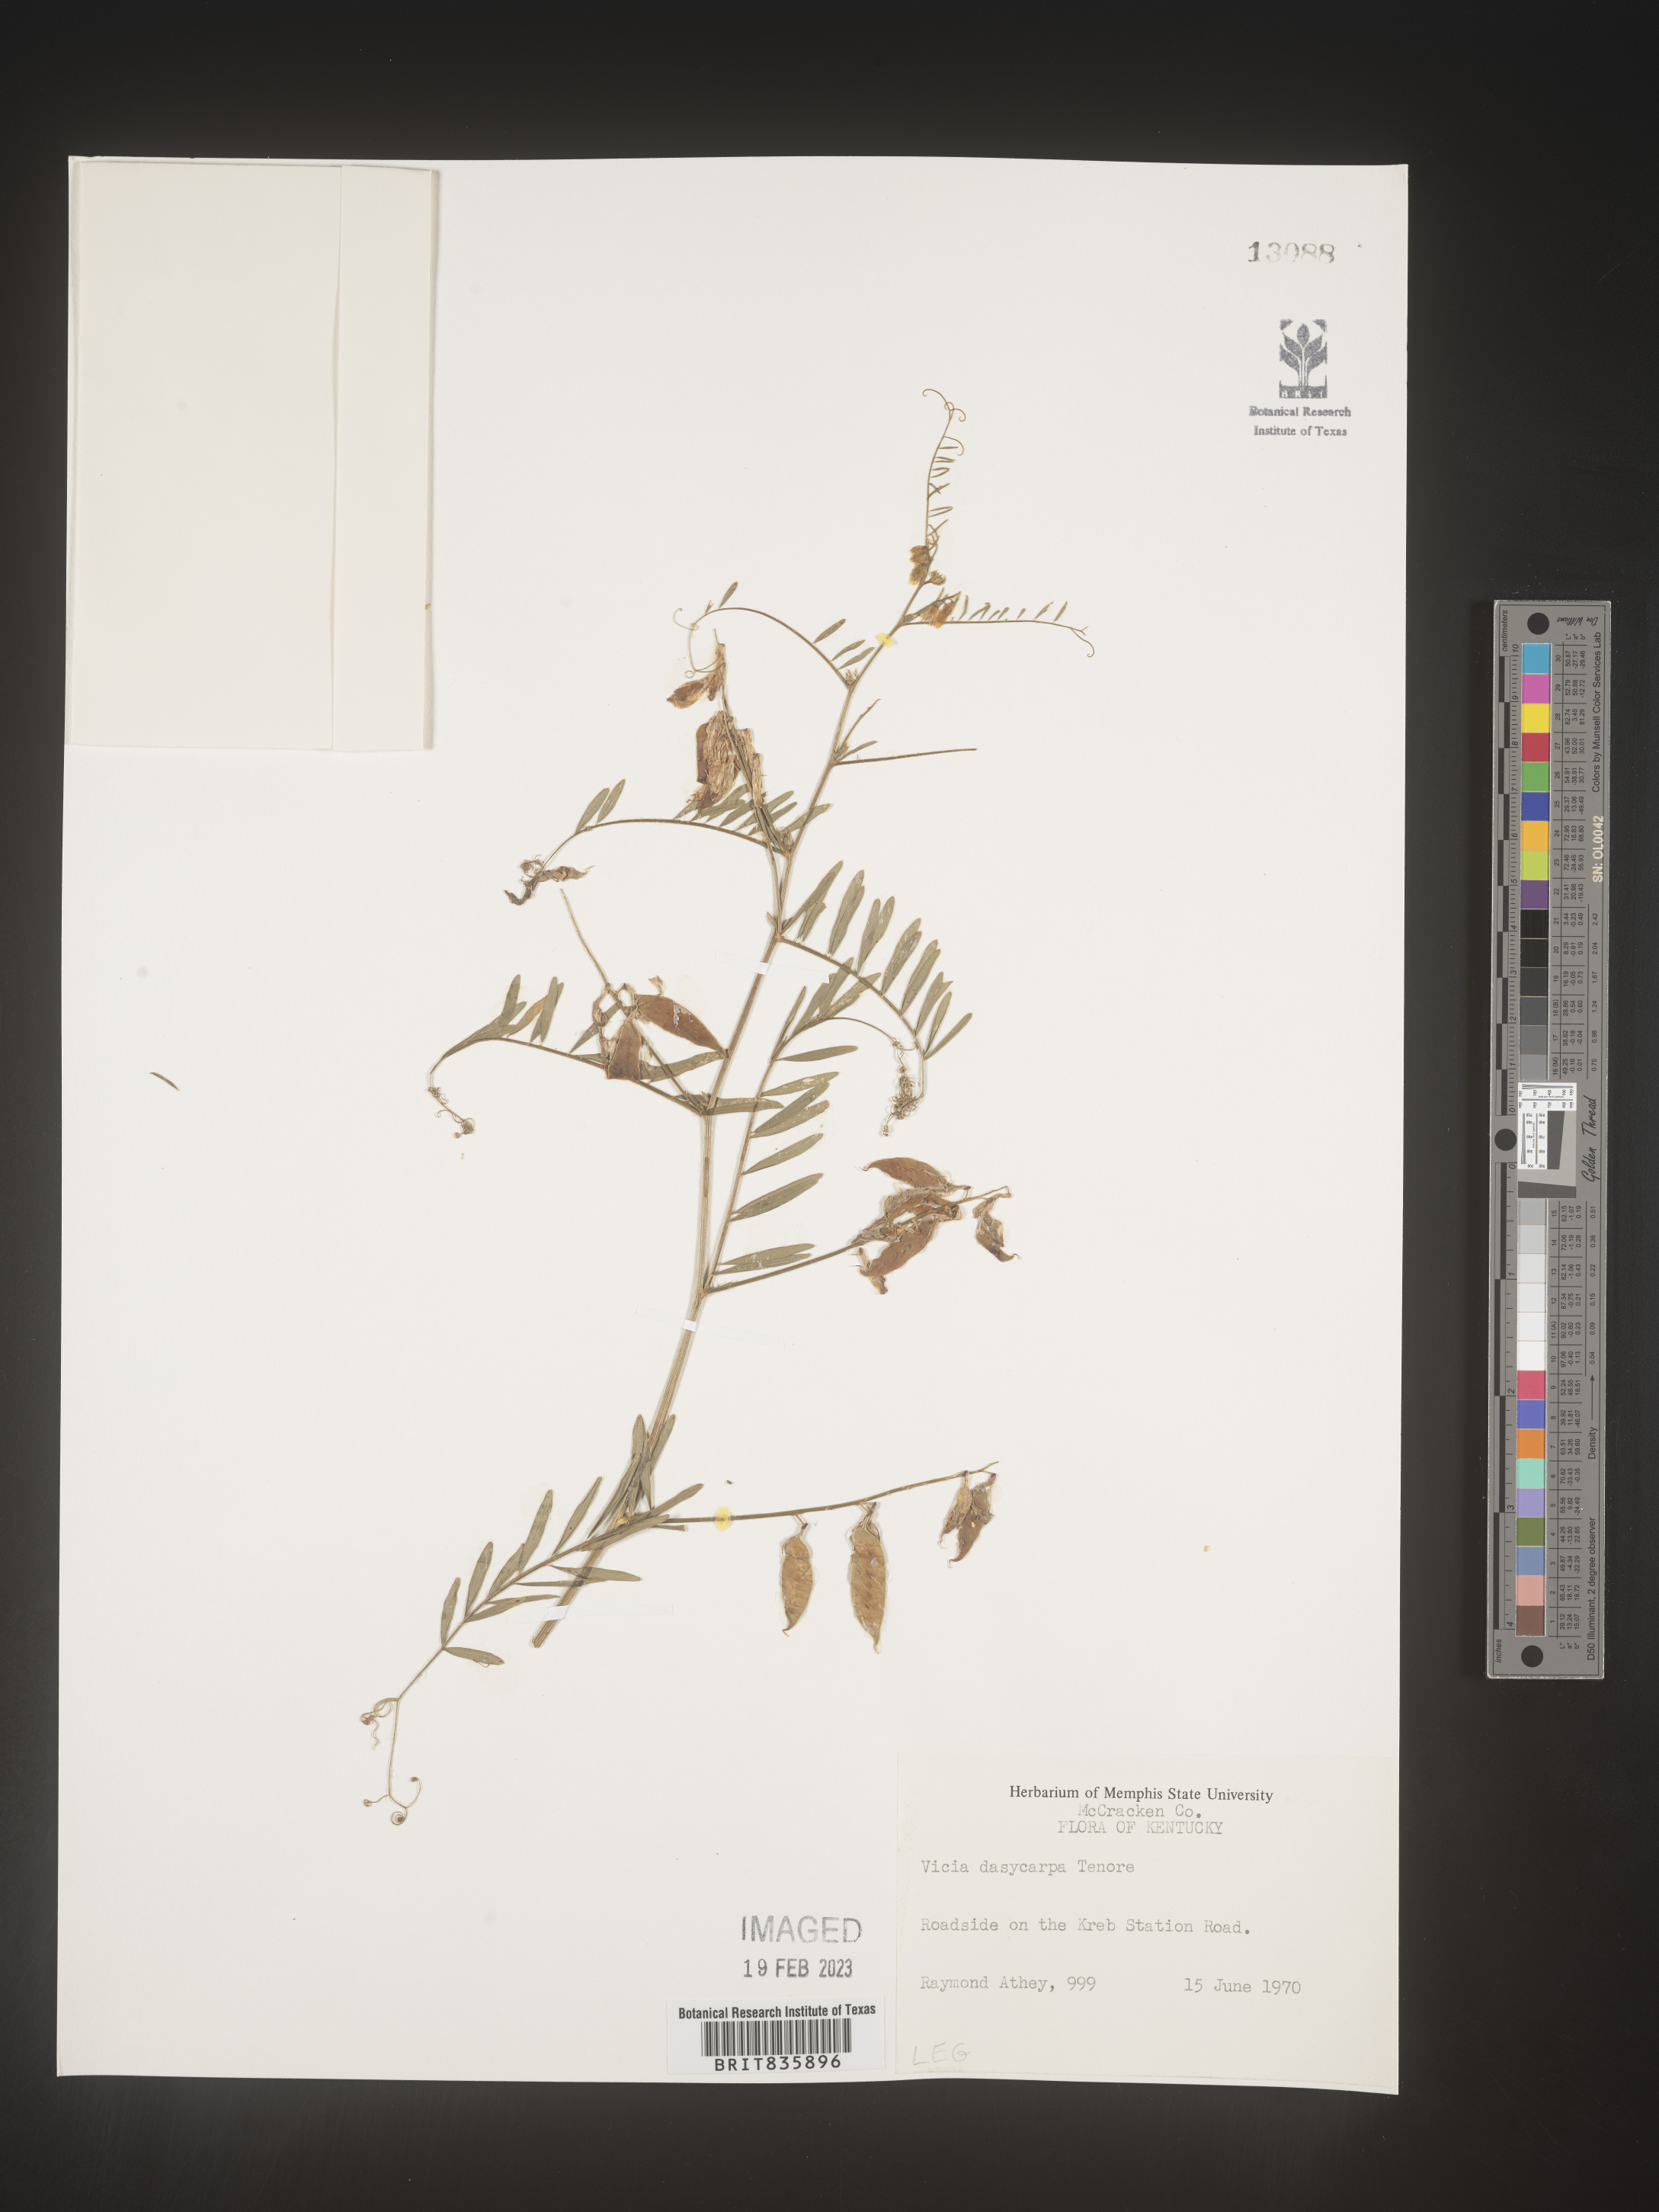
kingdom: Plantae
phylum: Tracheophyta
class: Magnoliopsida
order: Fabales
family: Fabaceae
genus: Vicia
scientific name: Vicia villosa
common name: Fodder vetch
